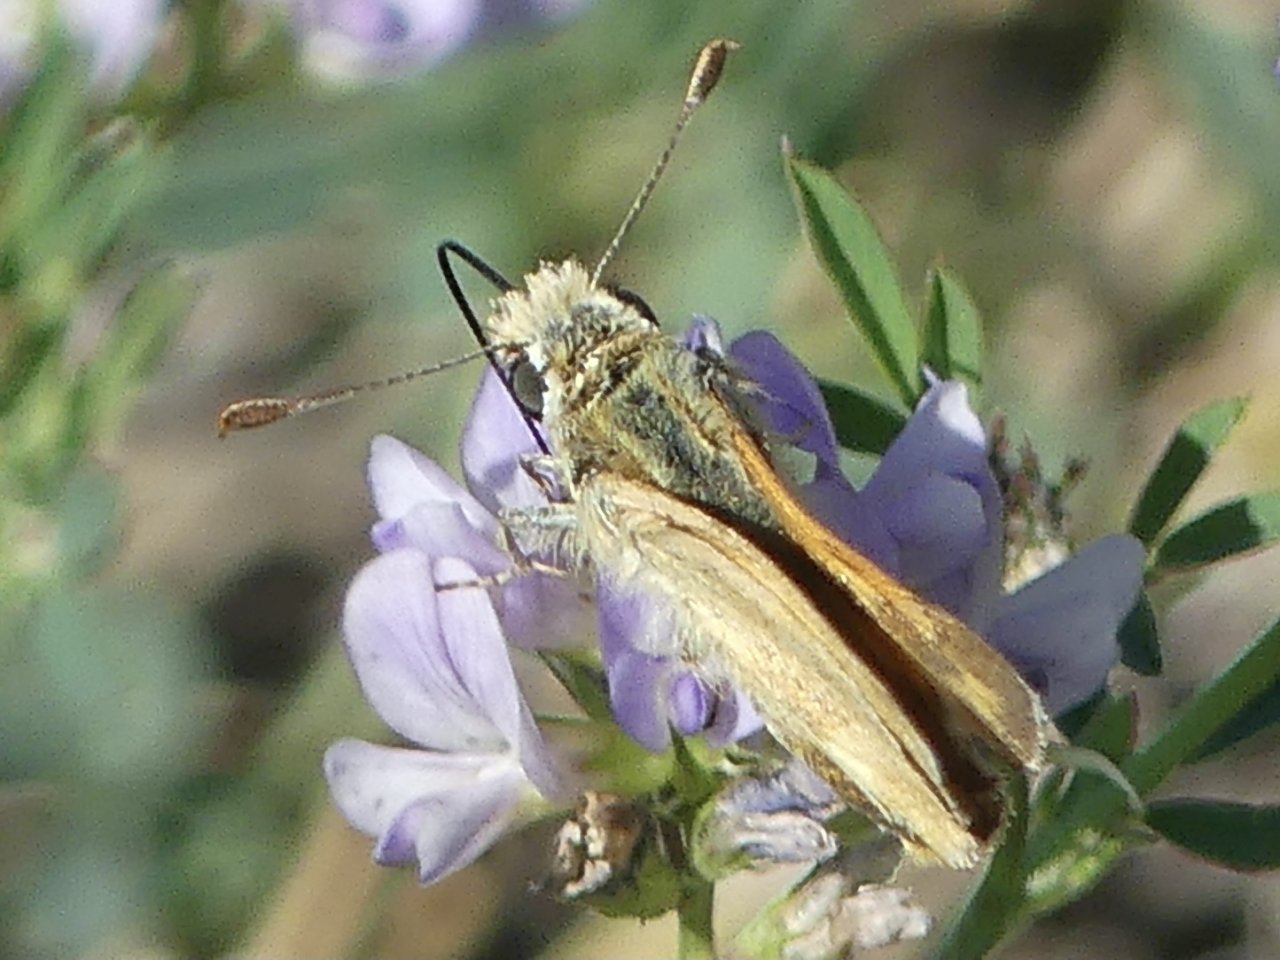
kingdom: Animalia
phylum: Arthropoda
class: Insecta
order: Lepidoptera
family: Hesperiidae
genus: Ochlodes
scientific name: Ochlodes sylvanoides
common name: Woodland Skipper
